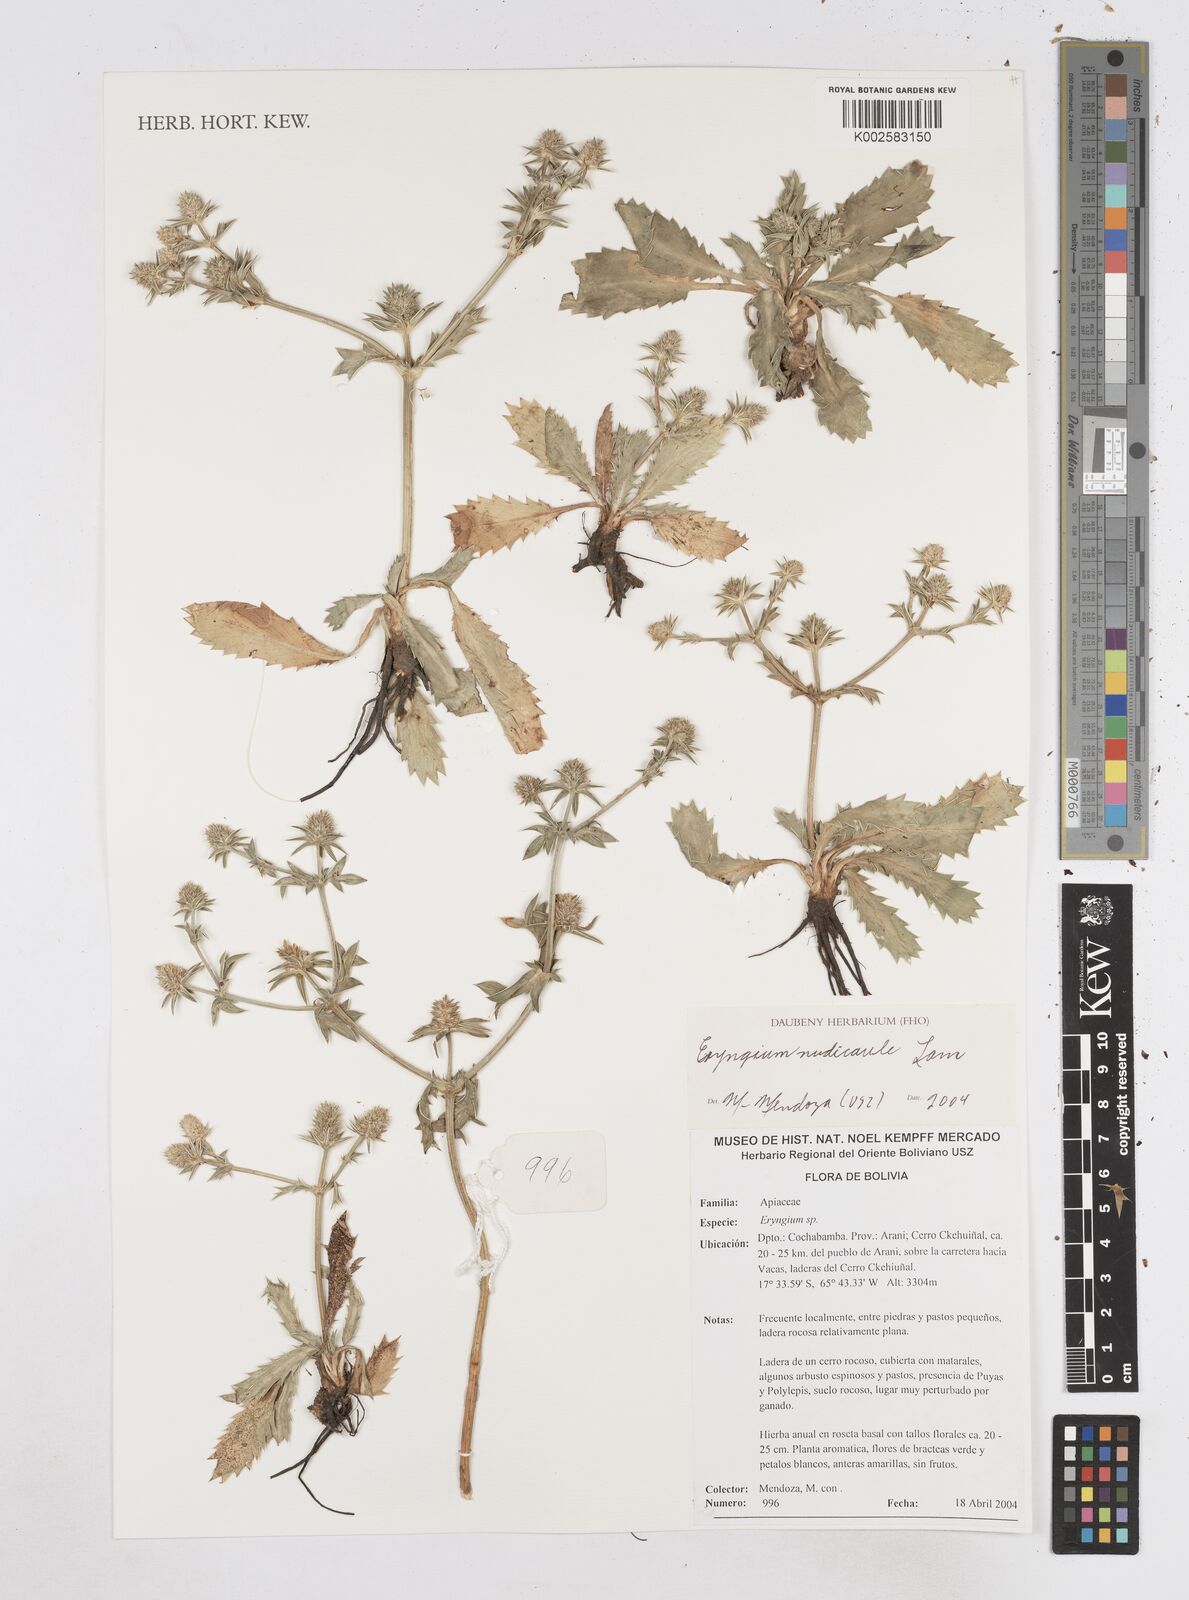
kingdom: Plantae
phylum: Tracheophyta
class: Magnoliopsida
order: Apiales
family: Apiaceae
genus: Eryngium
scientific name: Eryngium nudicaule
